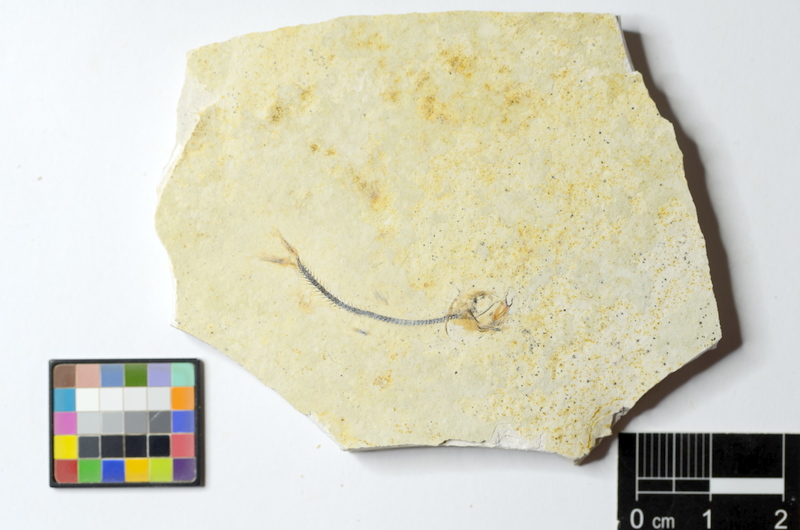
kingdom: Animalia
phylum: Chordata
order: Salmoniformes
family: Orthogonikleithridae
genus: Orthogonikleithrus
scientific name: Orthogonikleithrus hoelli
